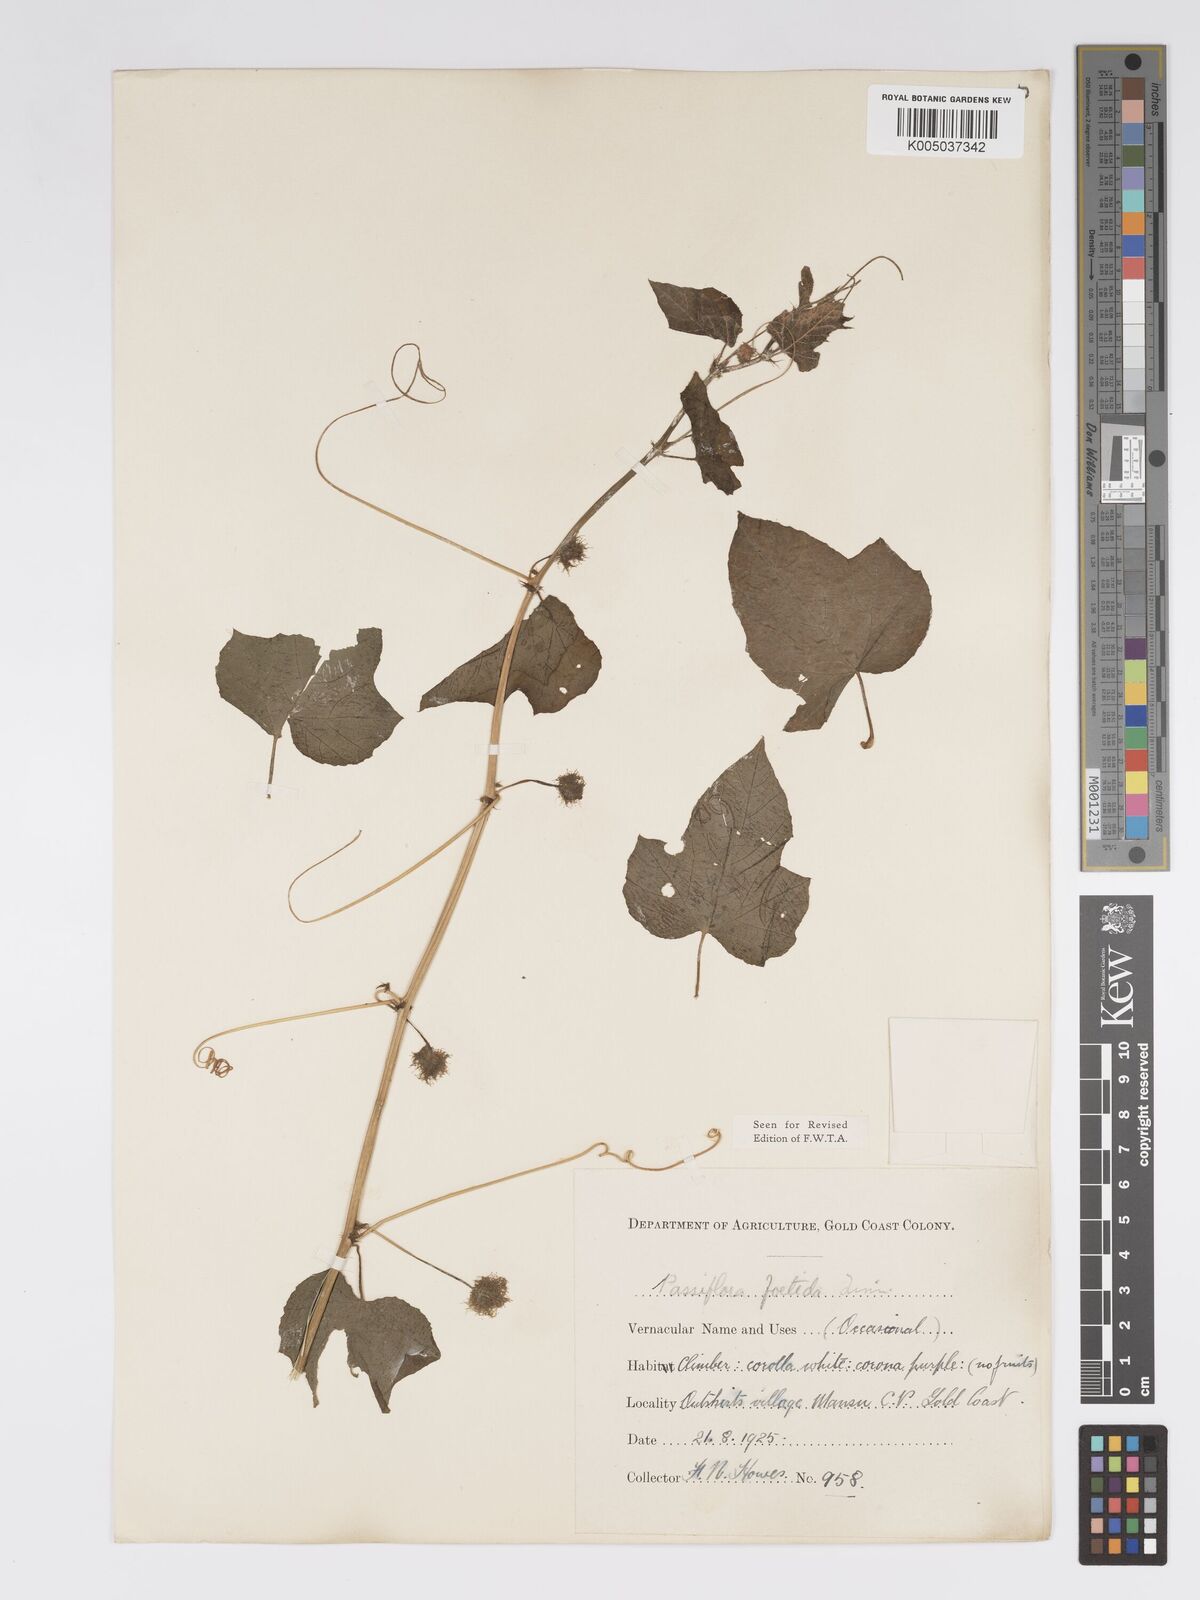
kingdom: Plantae
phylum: Tracheophyta
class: Magnoliopsida
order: Malpighiales
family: Passifloraceae
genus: Passiflora
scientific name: Passiflora foetida
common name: Fetid passionflower
